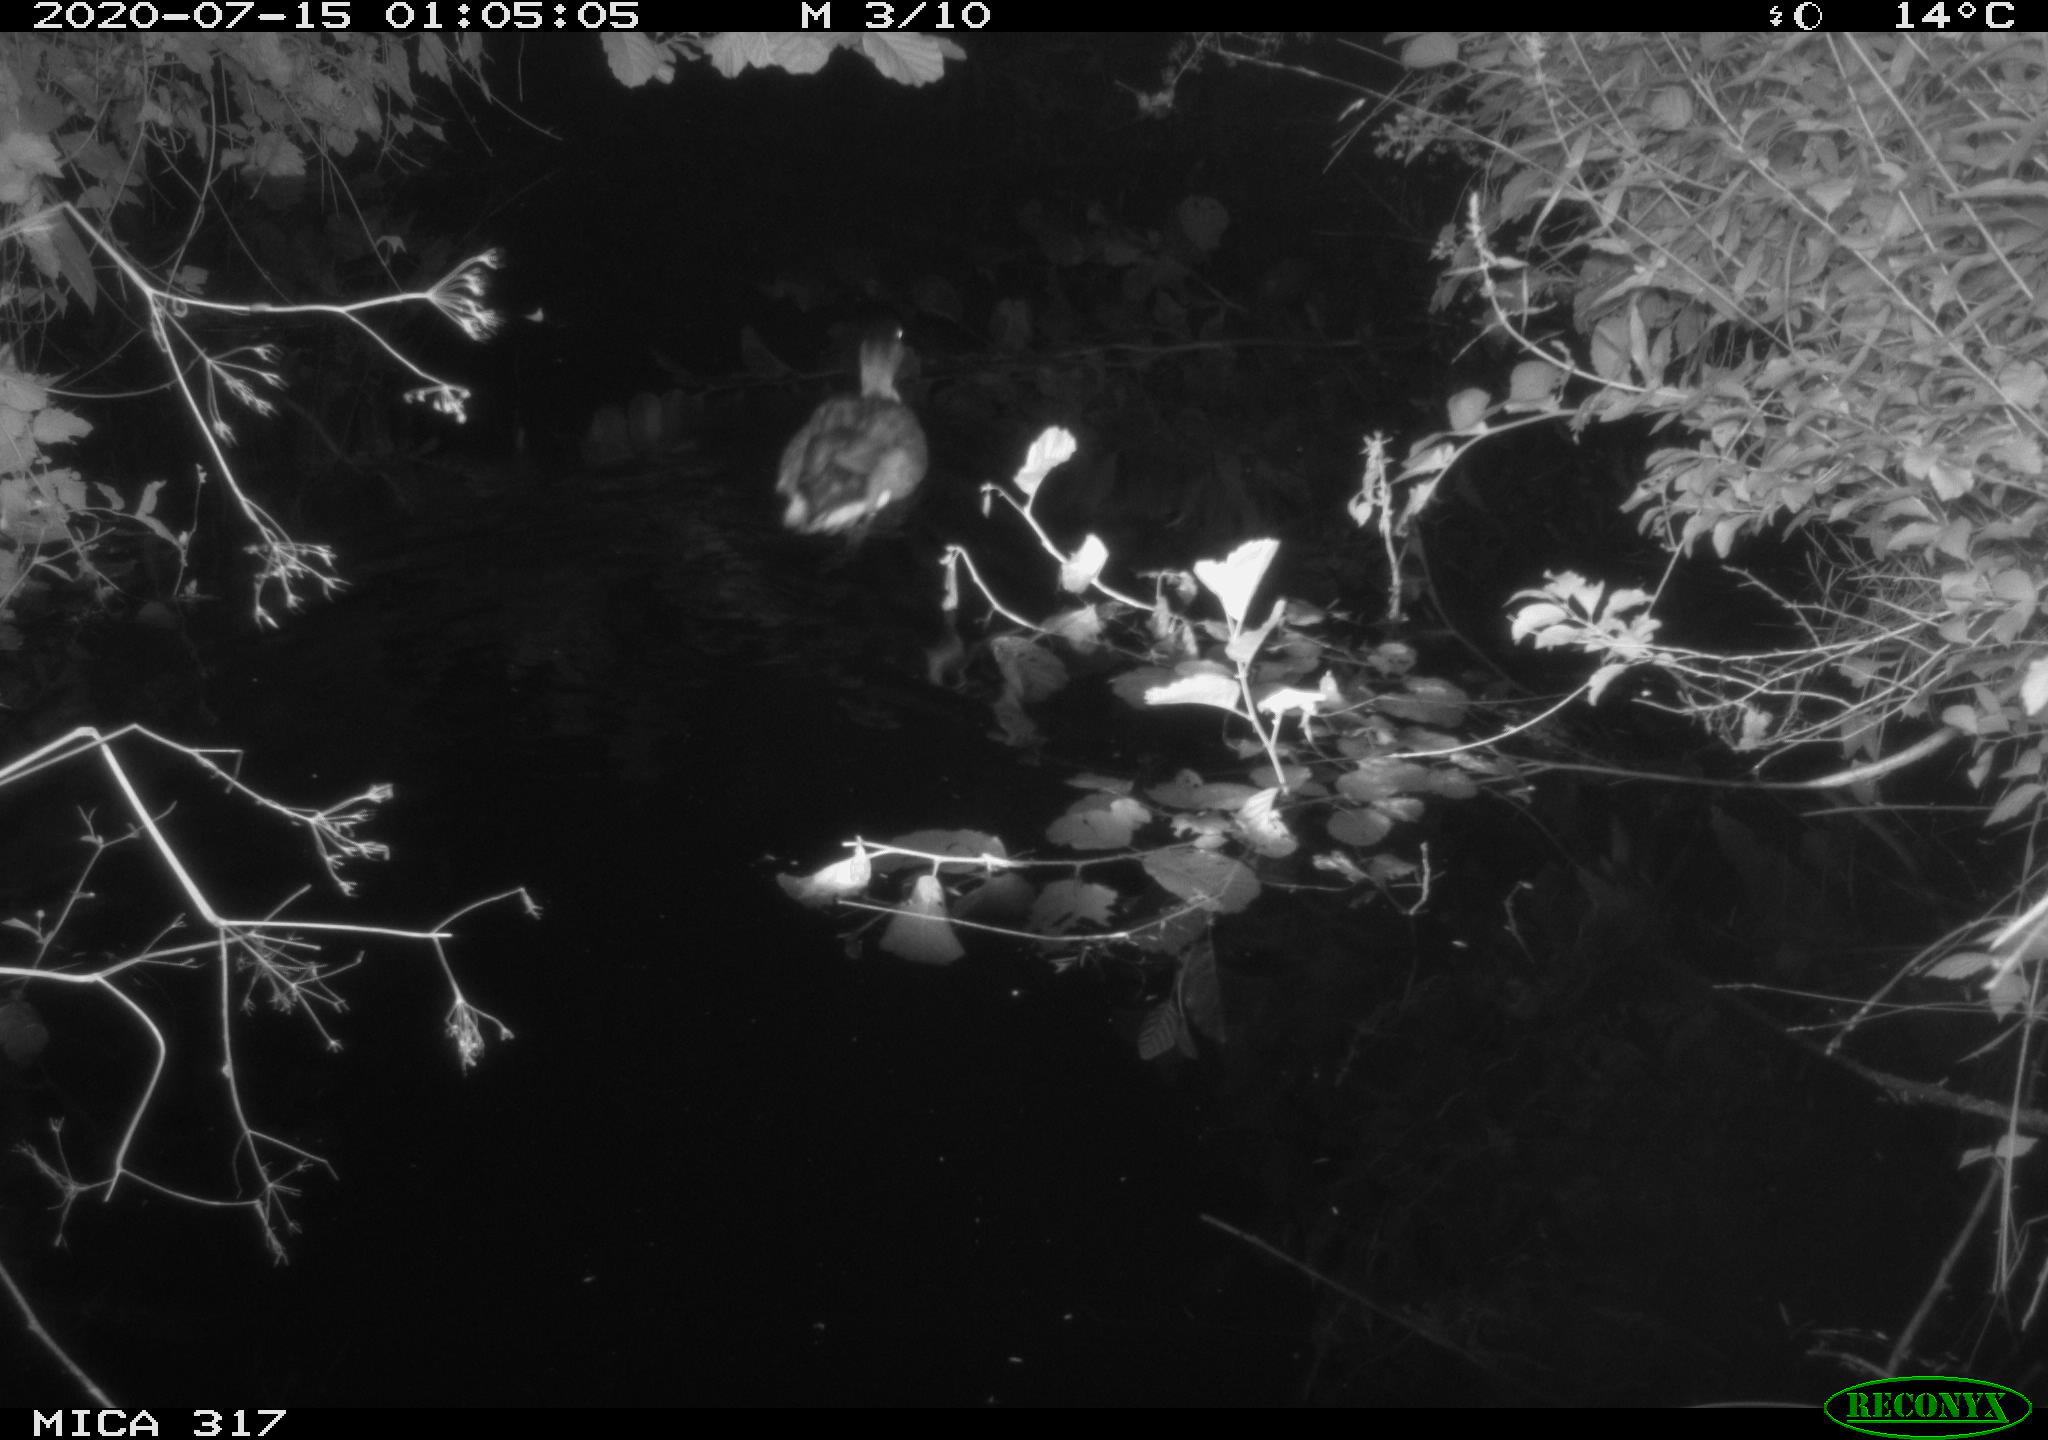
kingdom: Animalia
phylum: Chordata
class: Aves
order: Anseriformes
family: Anatidae
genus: Anas
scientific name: Anas platyrhynchos
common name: Mallard
